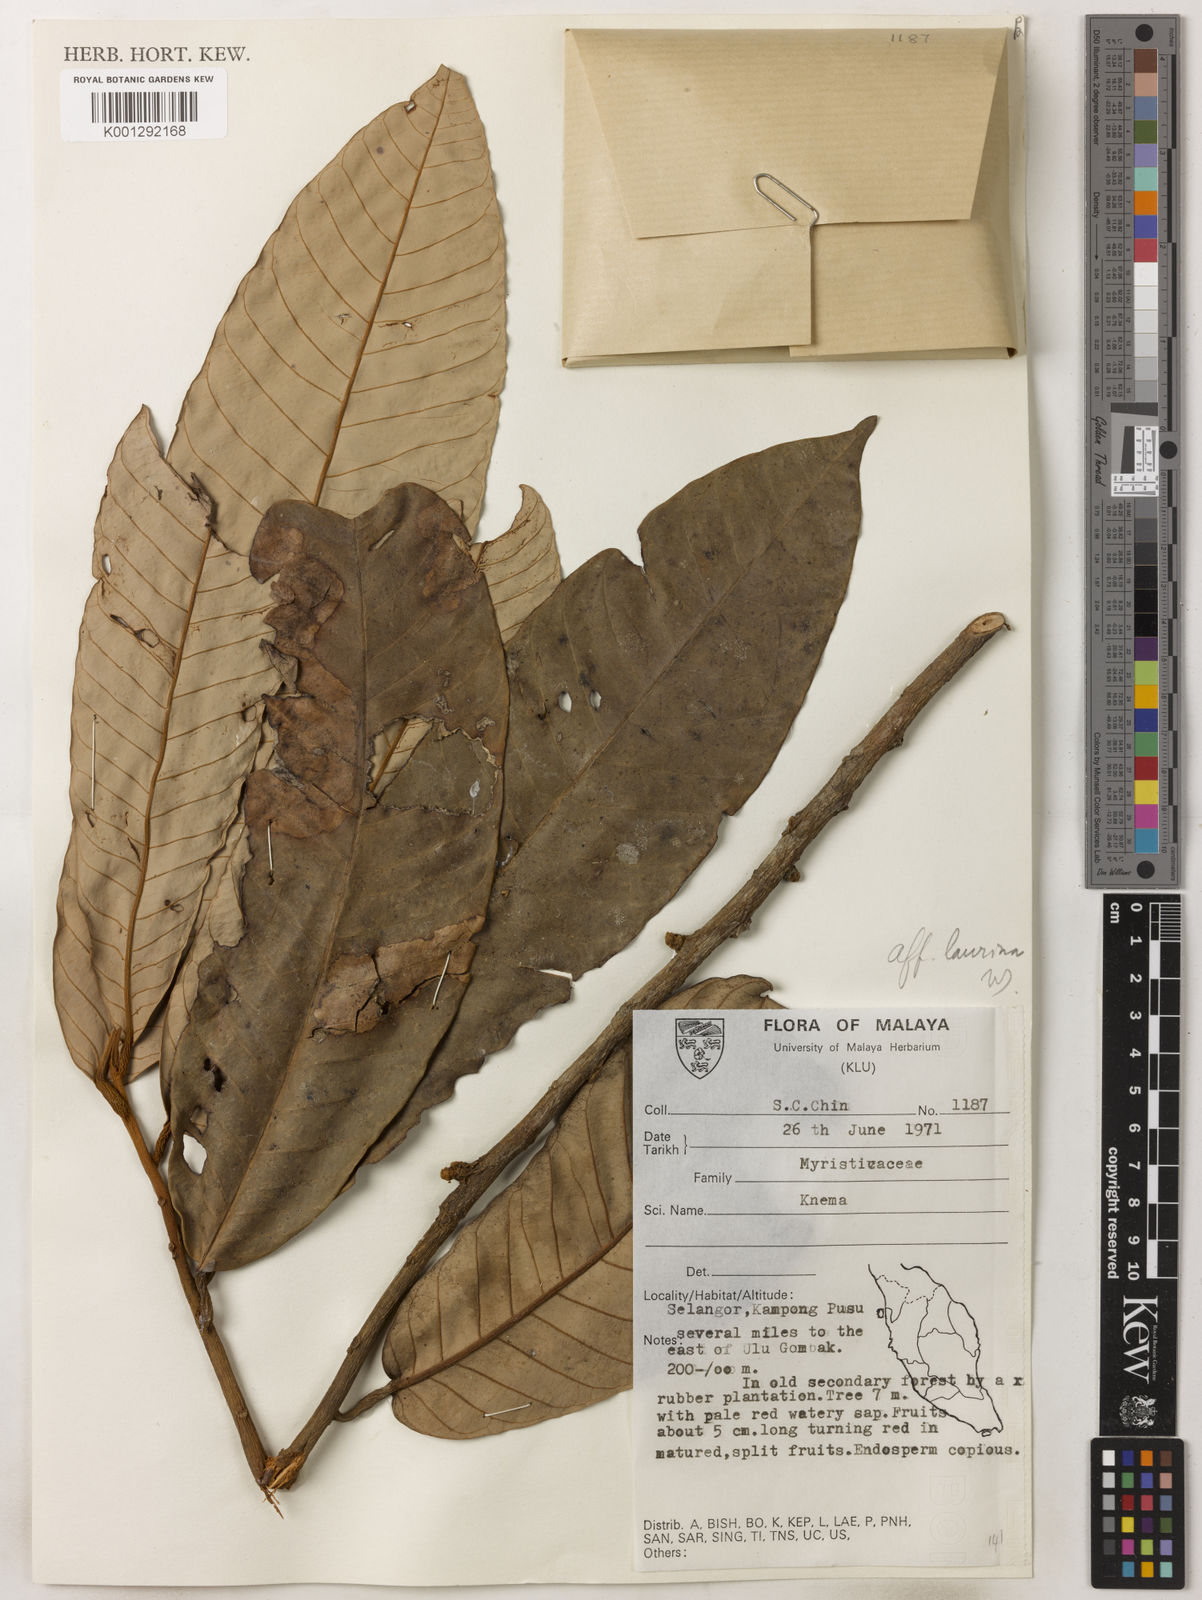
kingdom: Plantae
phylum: Tracheophyta
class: Magnoliopsida
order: Magnoliales
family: Myristicaceae
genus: Knema
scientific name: Knema laurina
